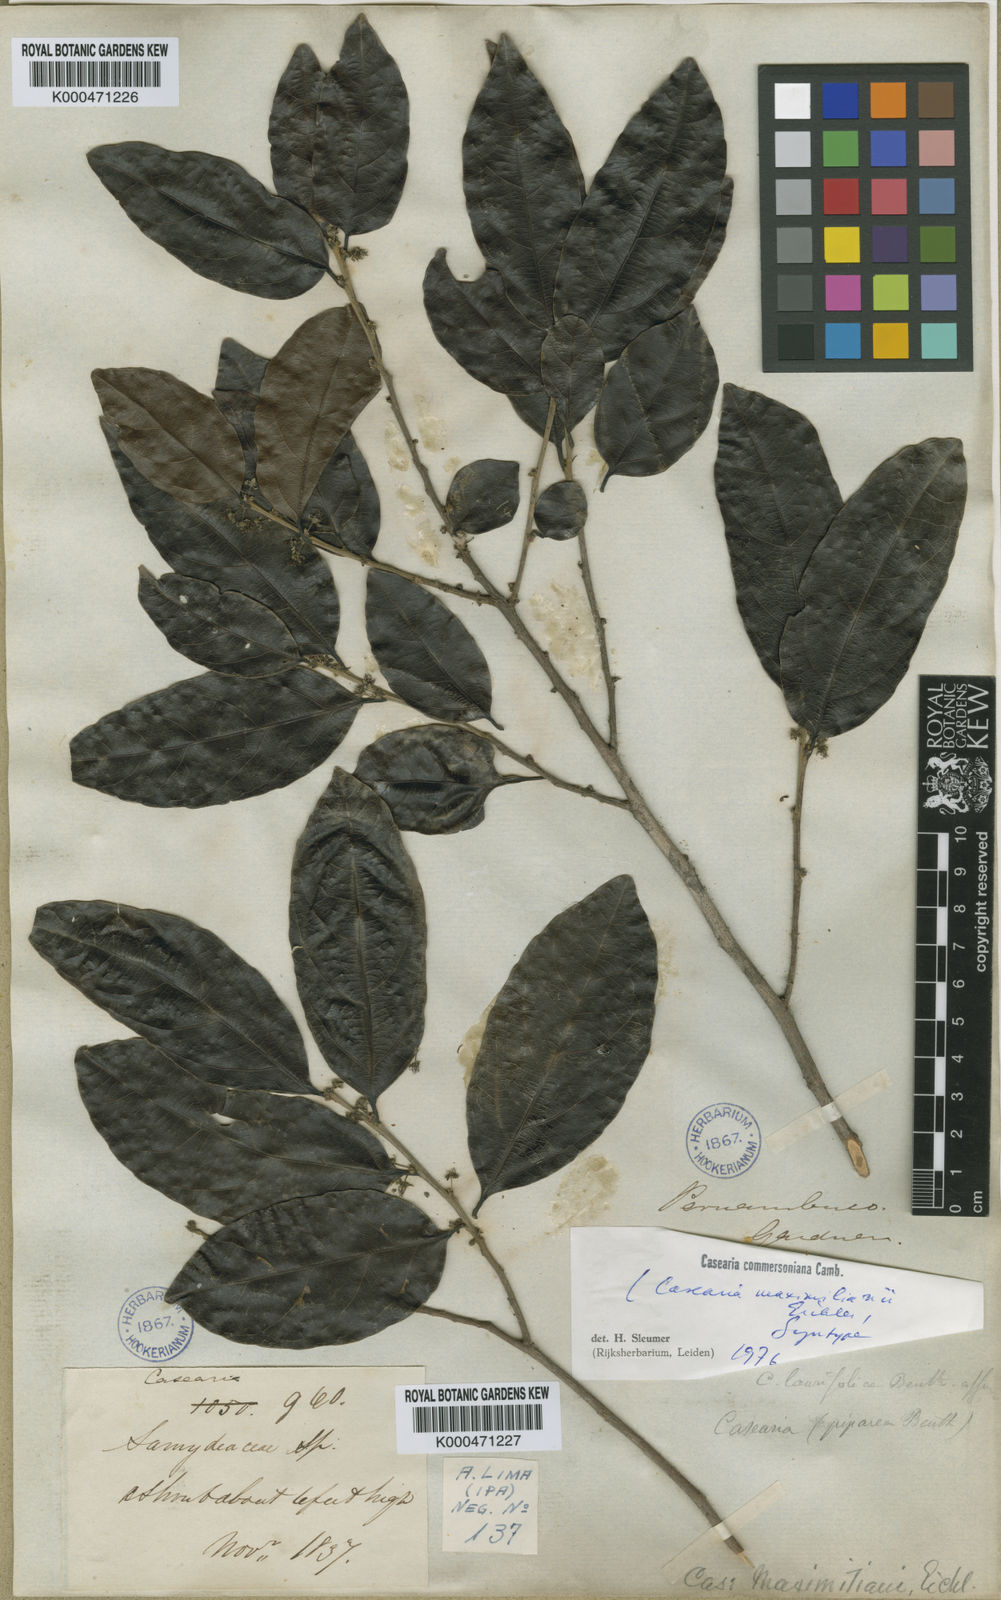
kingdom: Plantae
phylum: Tracheophyta
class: Magnoliopsida
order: Malpighiales
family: Salicaceae
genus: Piparea
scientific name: Piparea dentata
